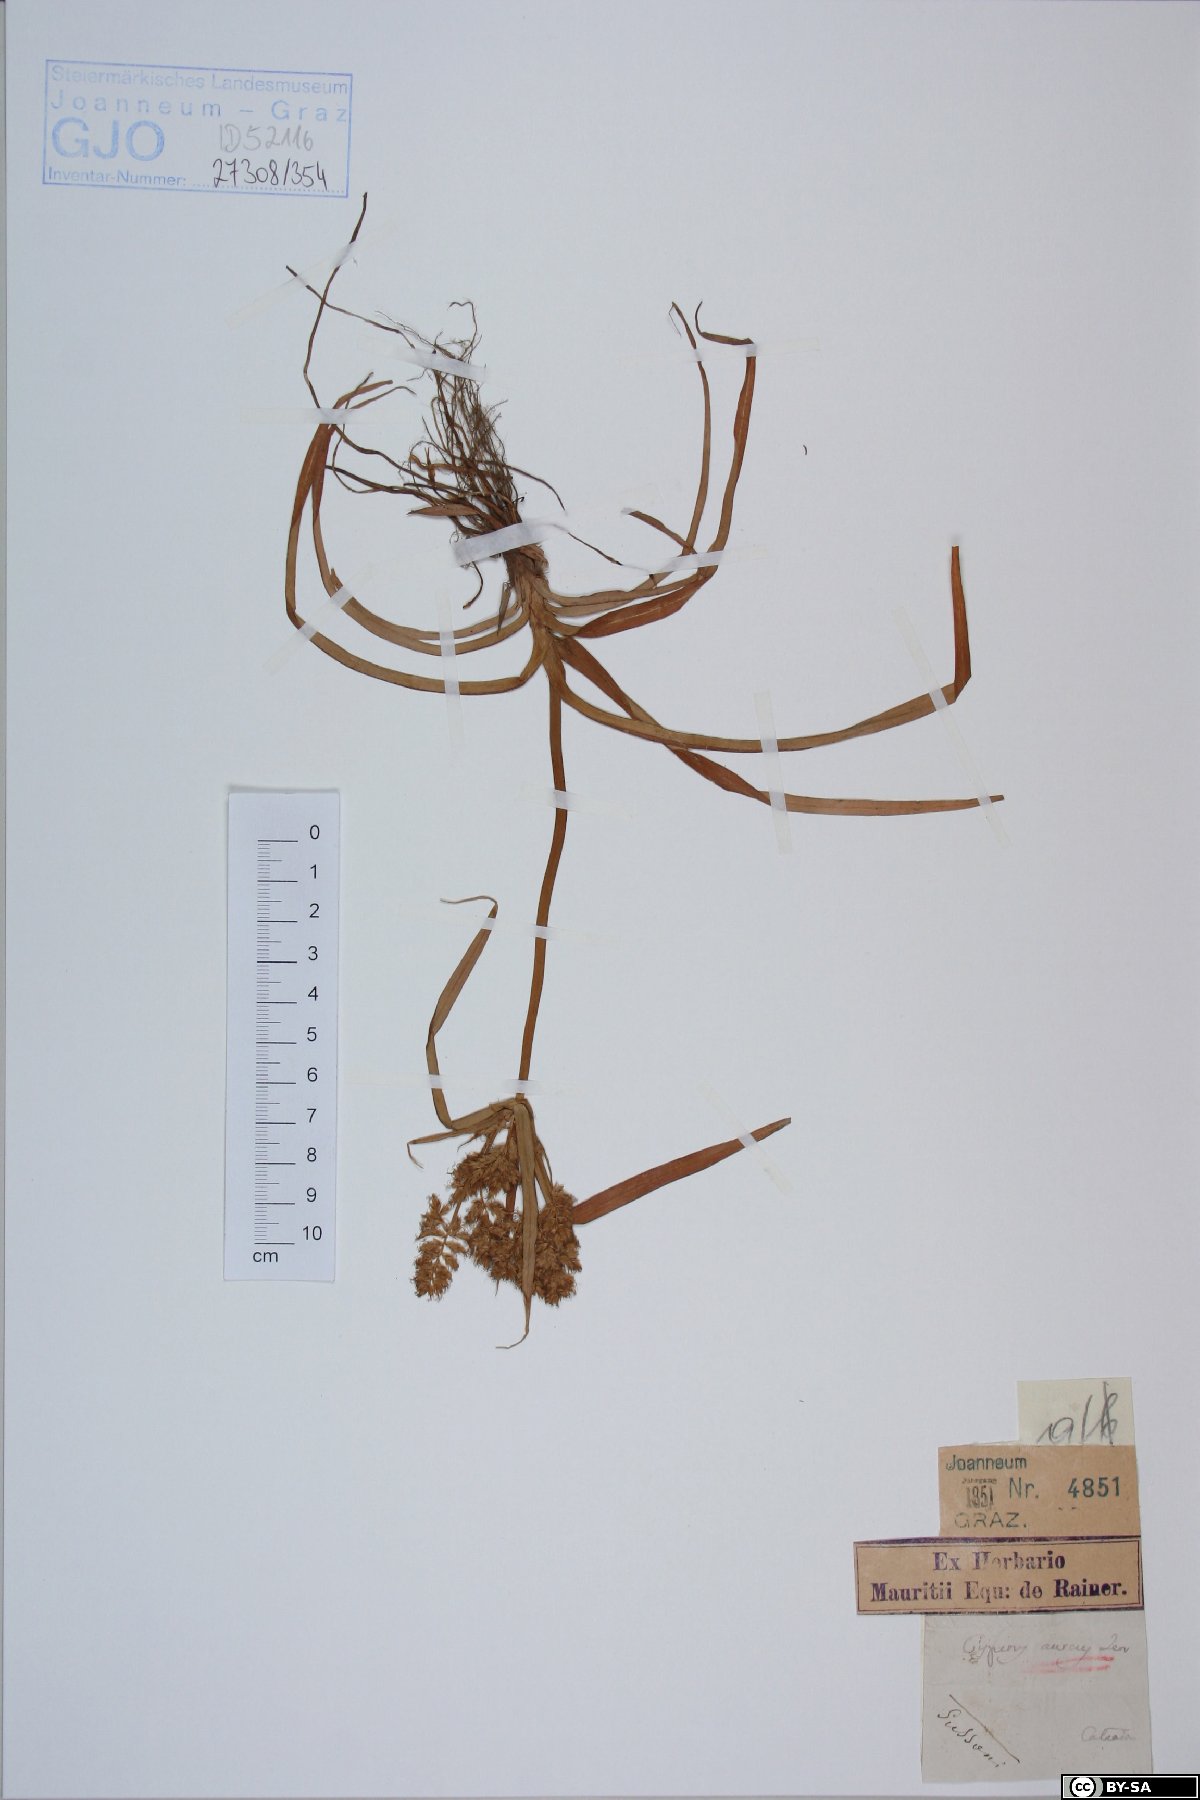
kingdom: Plantae
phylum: Bryophyta
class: Bryopsida
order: Bryales
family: Mniaceae
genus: Plagiomnium
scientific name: Plagiomnium medium
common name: Alpine leafy moss
